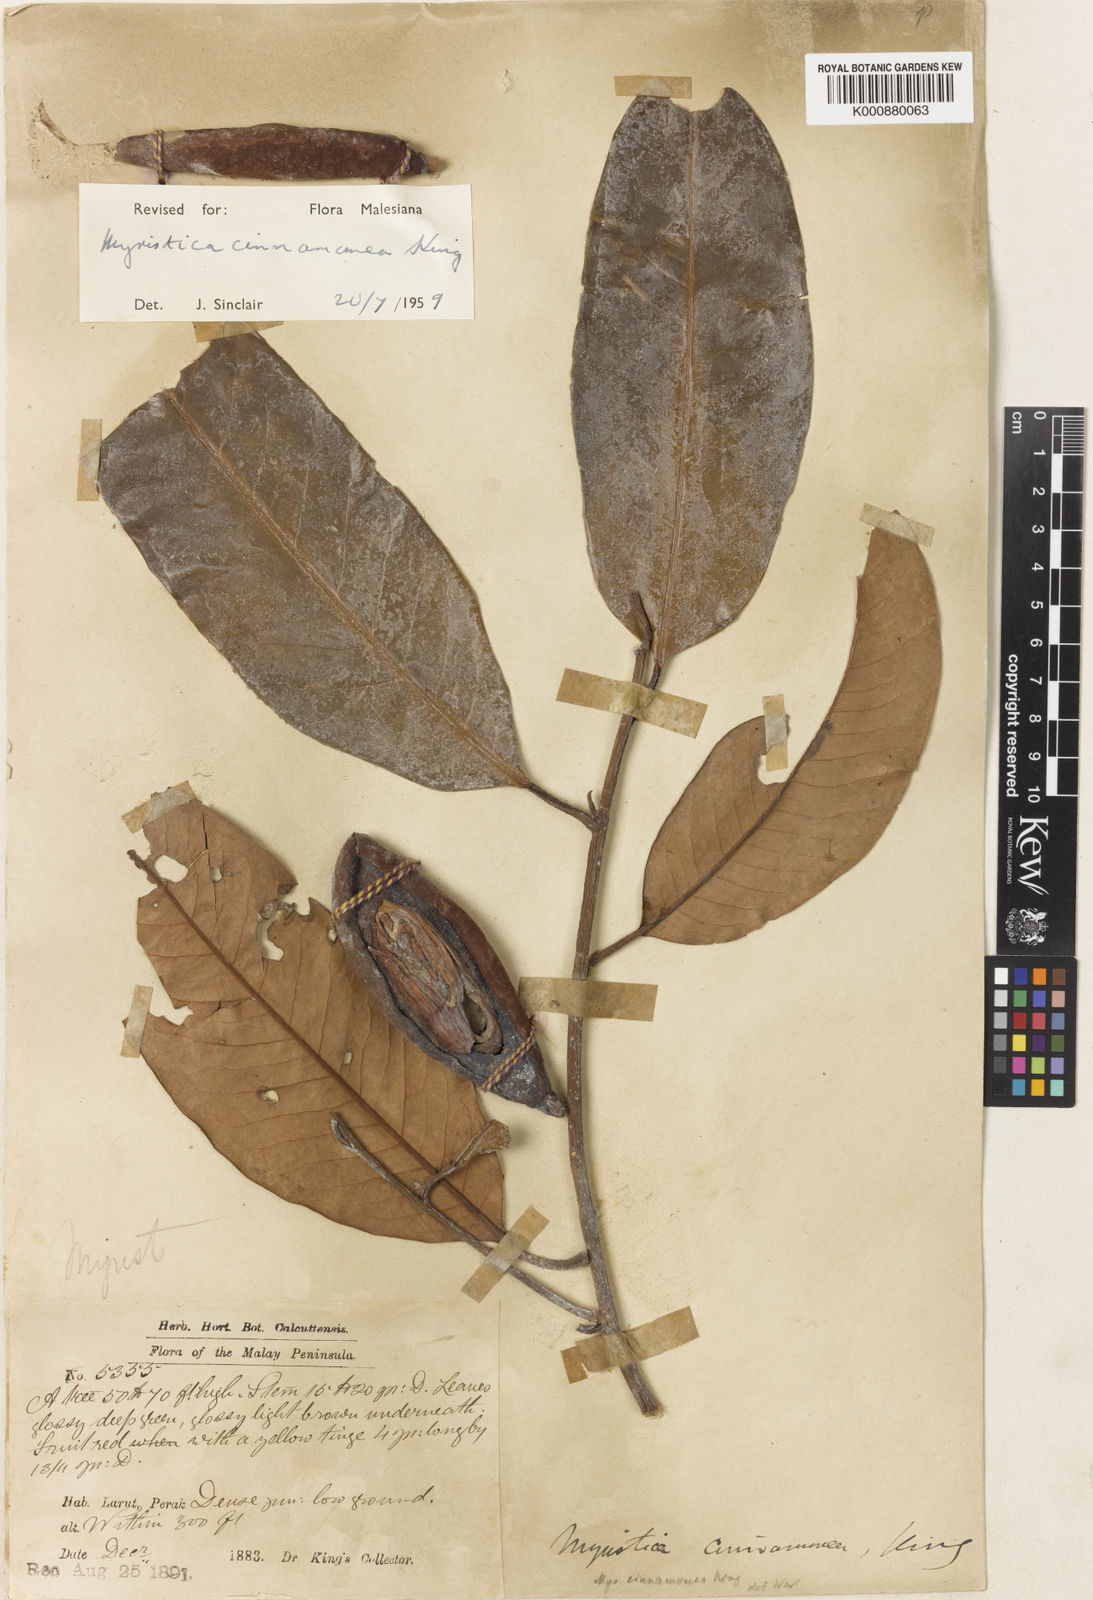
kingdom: Plantae
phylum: Tracheophyta
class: Magnoliopsida
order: Magnoliales
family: Myristicaceae
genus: Myristica
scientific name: Myristica cinnamomea
